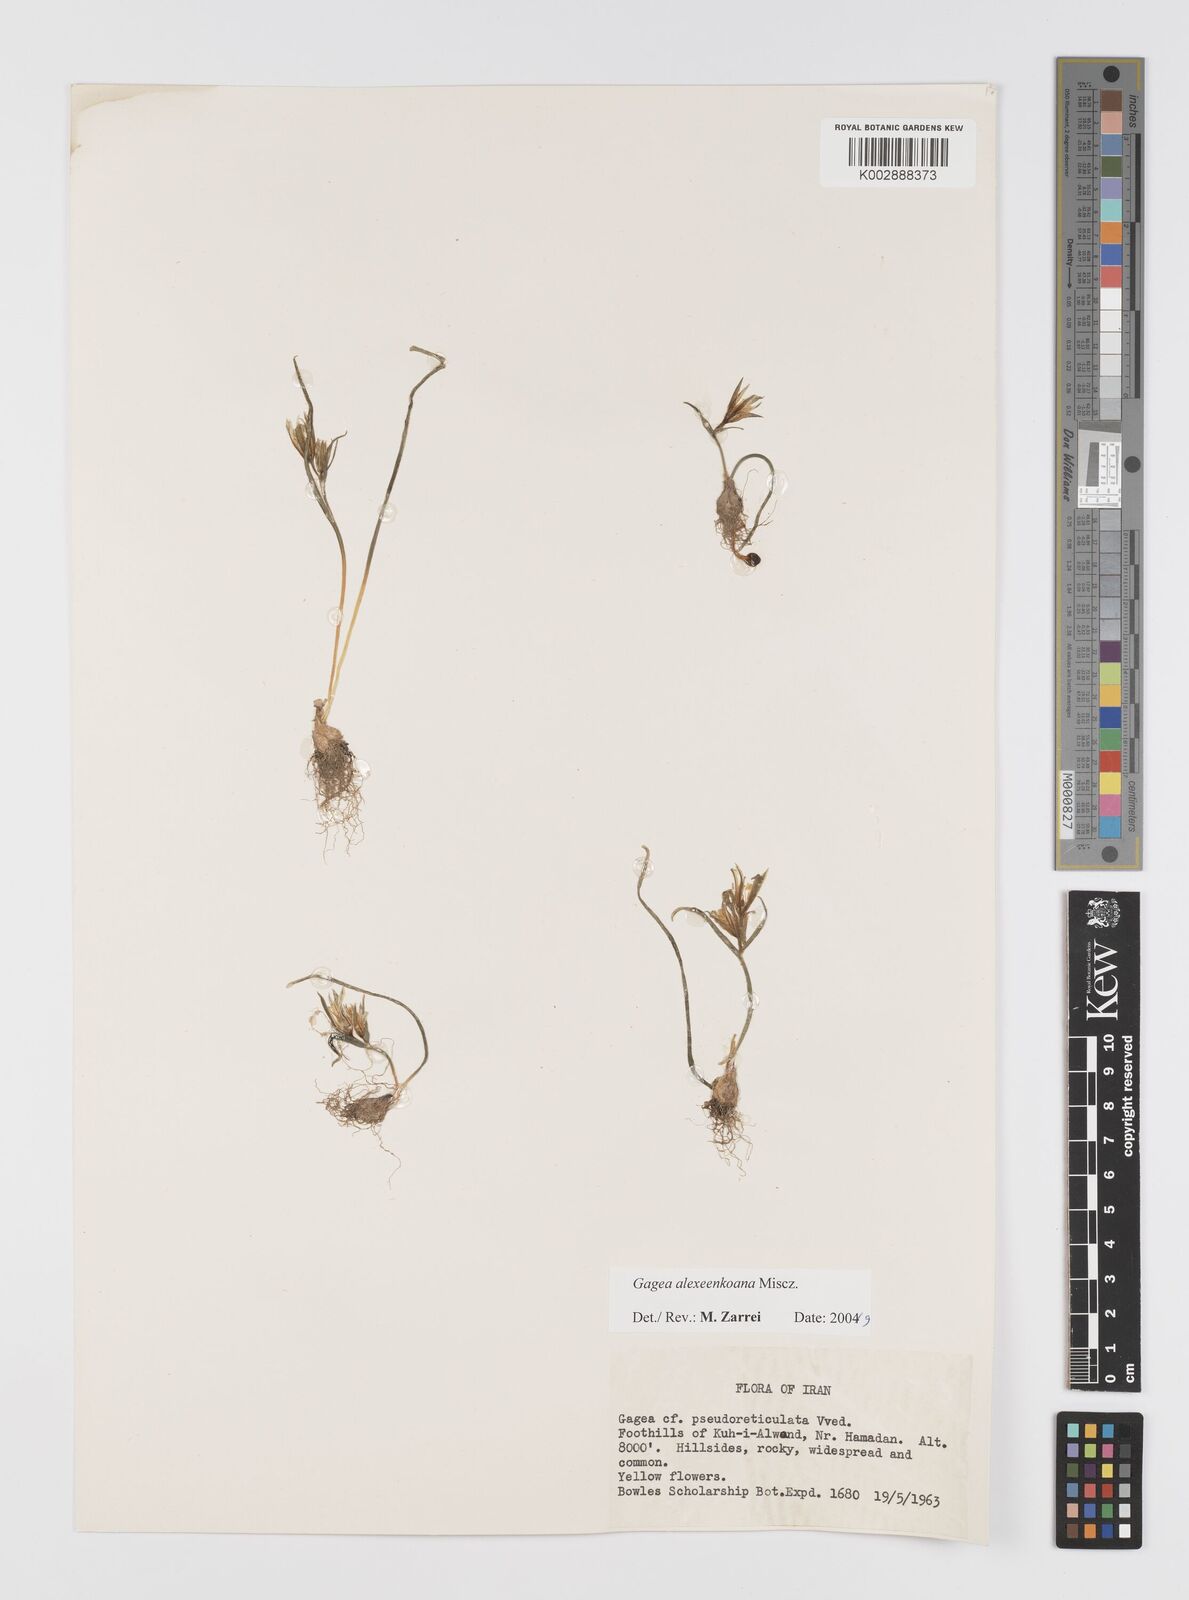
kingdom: Plantae
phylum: Tracheophyta
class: Liliopsida
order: Liliales
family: Liliaceae
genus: Gagea
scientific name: Gagea alexeenkoana
